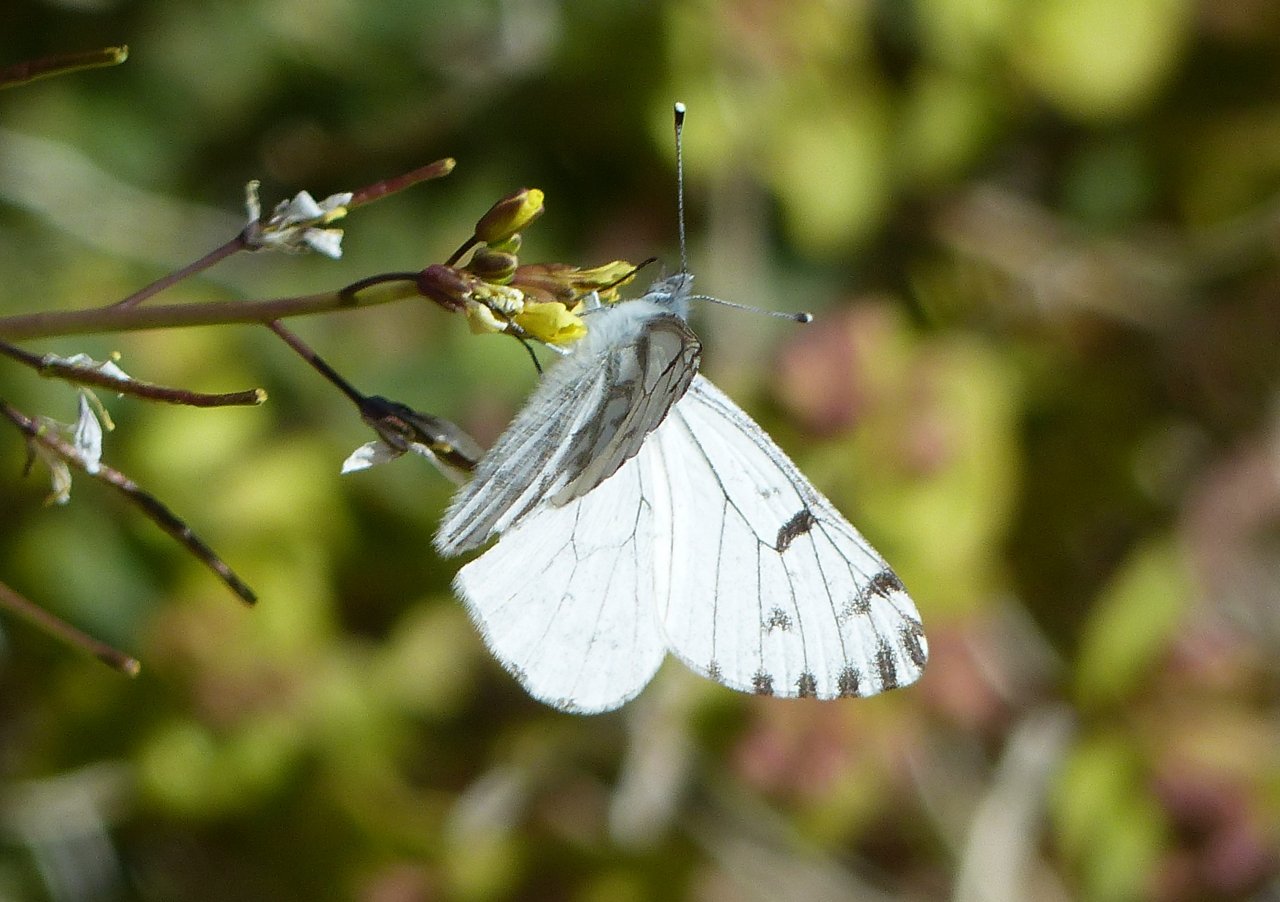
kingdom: Animalia
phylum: Arthropoda
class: Insecta
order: Lepidoptera
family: Pieridae
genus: Pontia
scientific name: Pontia sisymbrii
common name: Spring White
